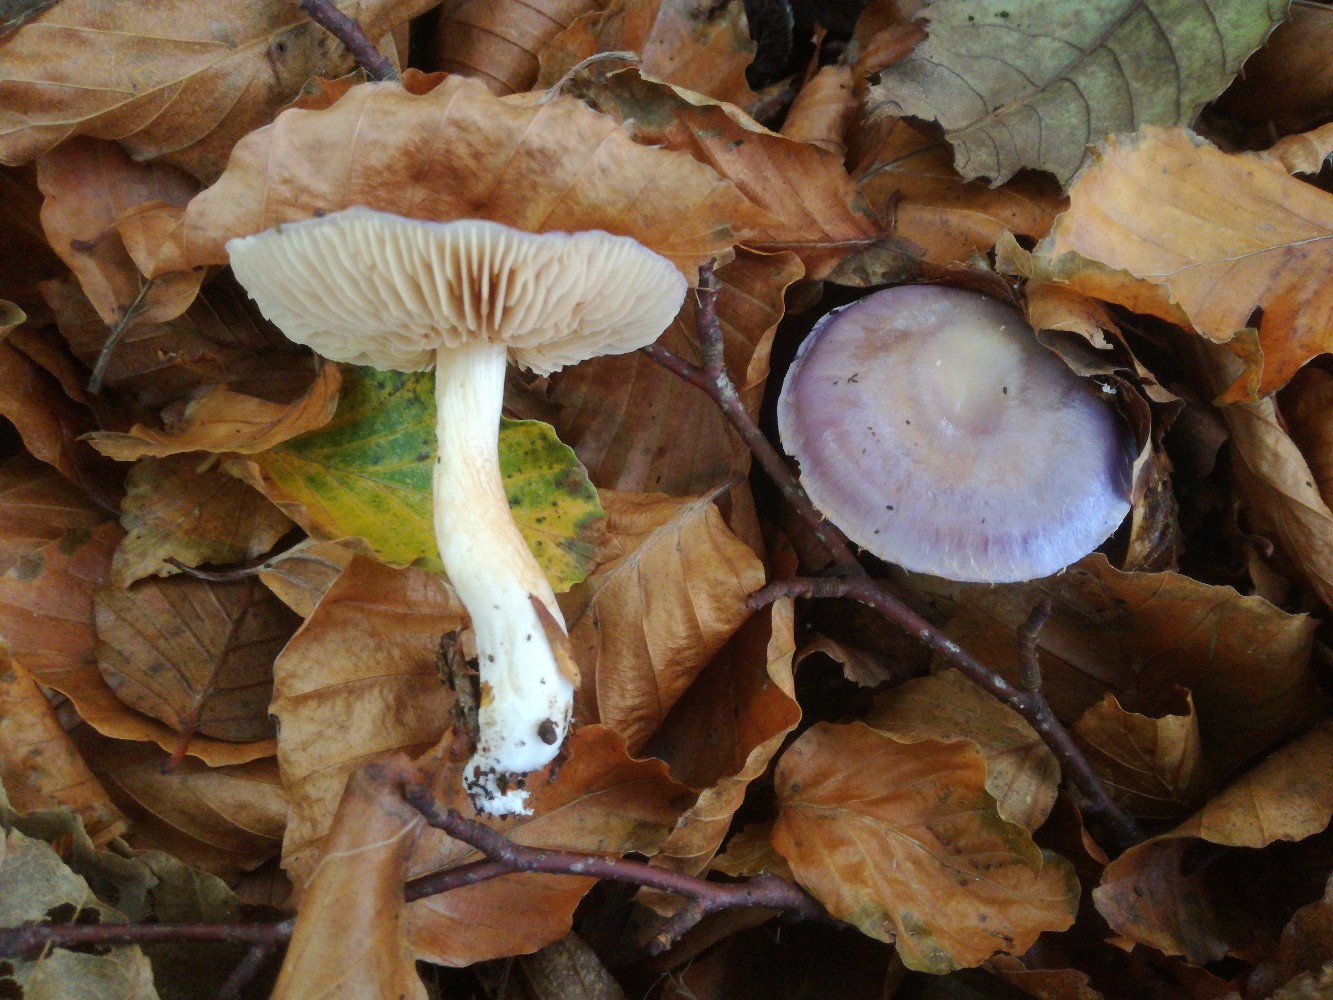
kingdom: Fungi
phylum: Basidiomycota
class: Agaricomycetes
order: Agaricales
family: Cortinariaceae
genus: Thaxterogaster
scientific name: Thaxterogaster croceocoeruleus
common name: blågullig slørhat
